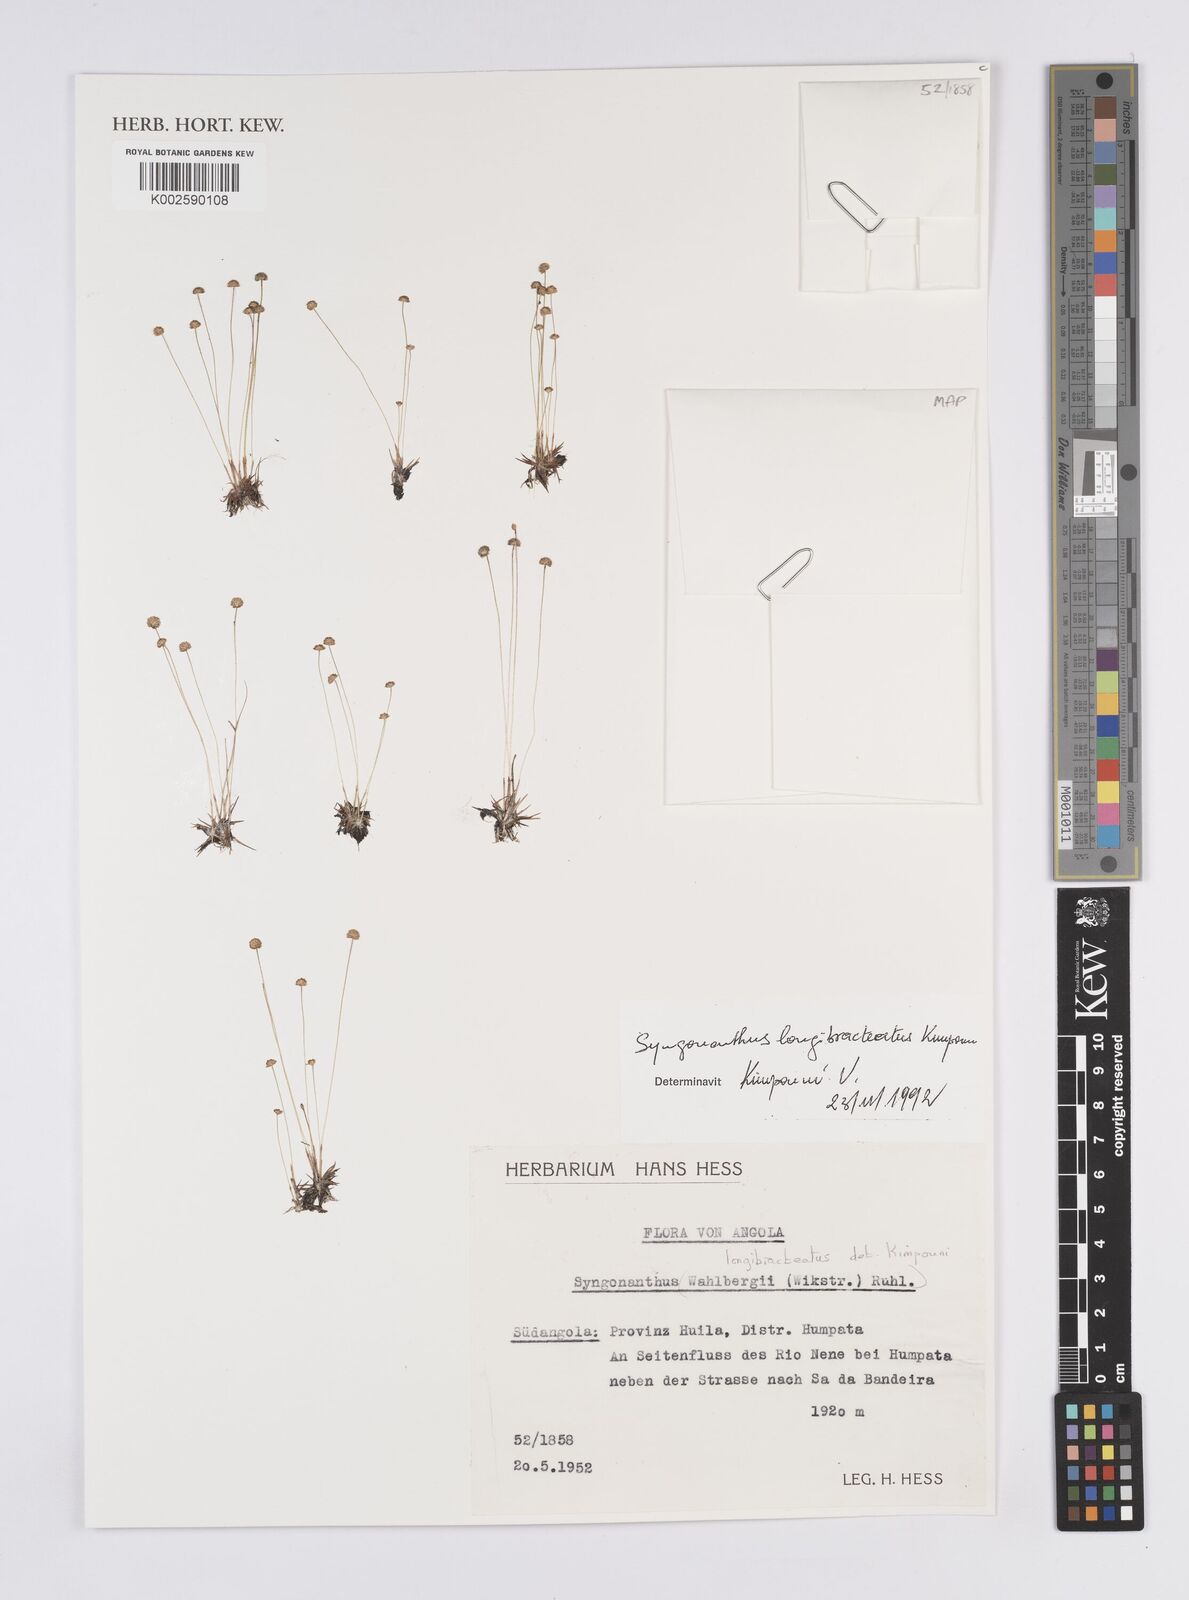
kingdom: Plantae
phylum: Tracheophyta
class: Liliopsida
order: Poales
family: Eriocaulaceae
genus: Syngonanthus
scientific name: Syngonanthus longibracteatus
